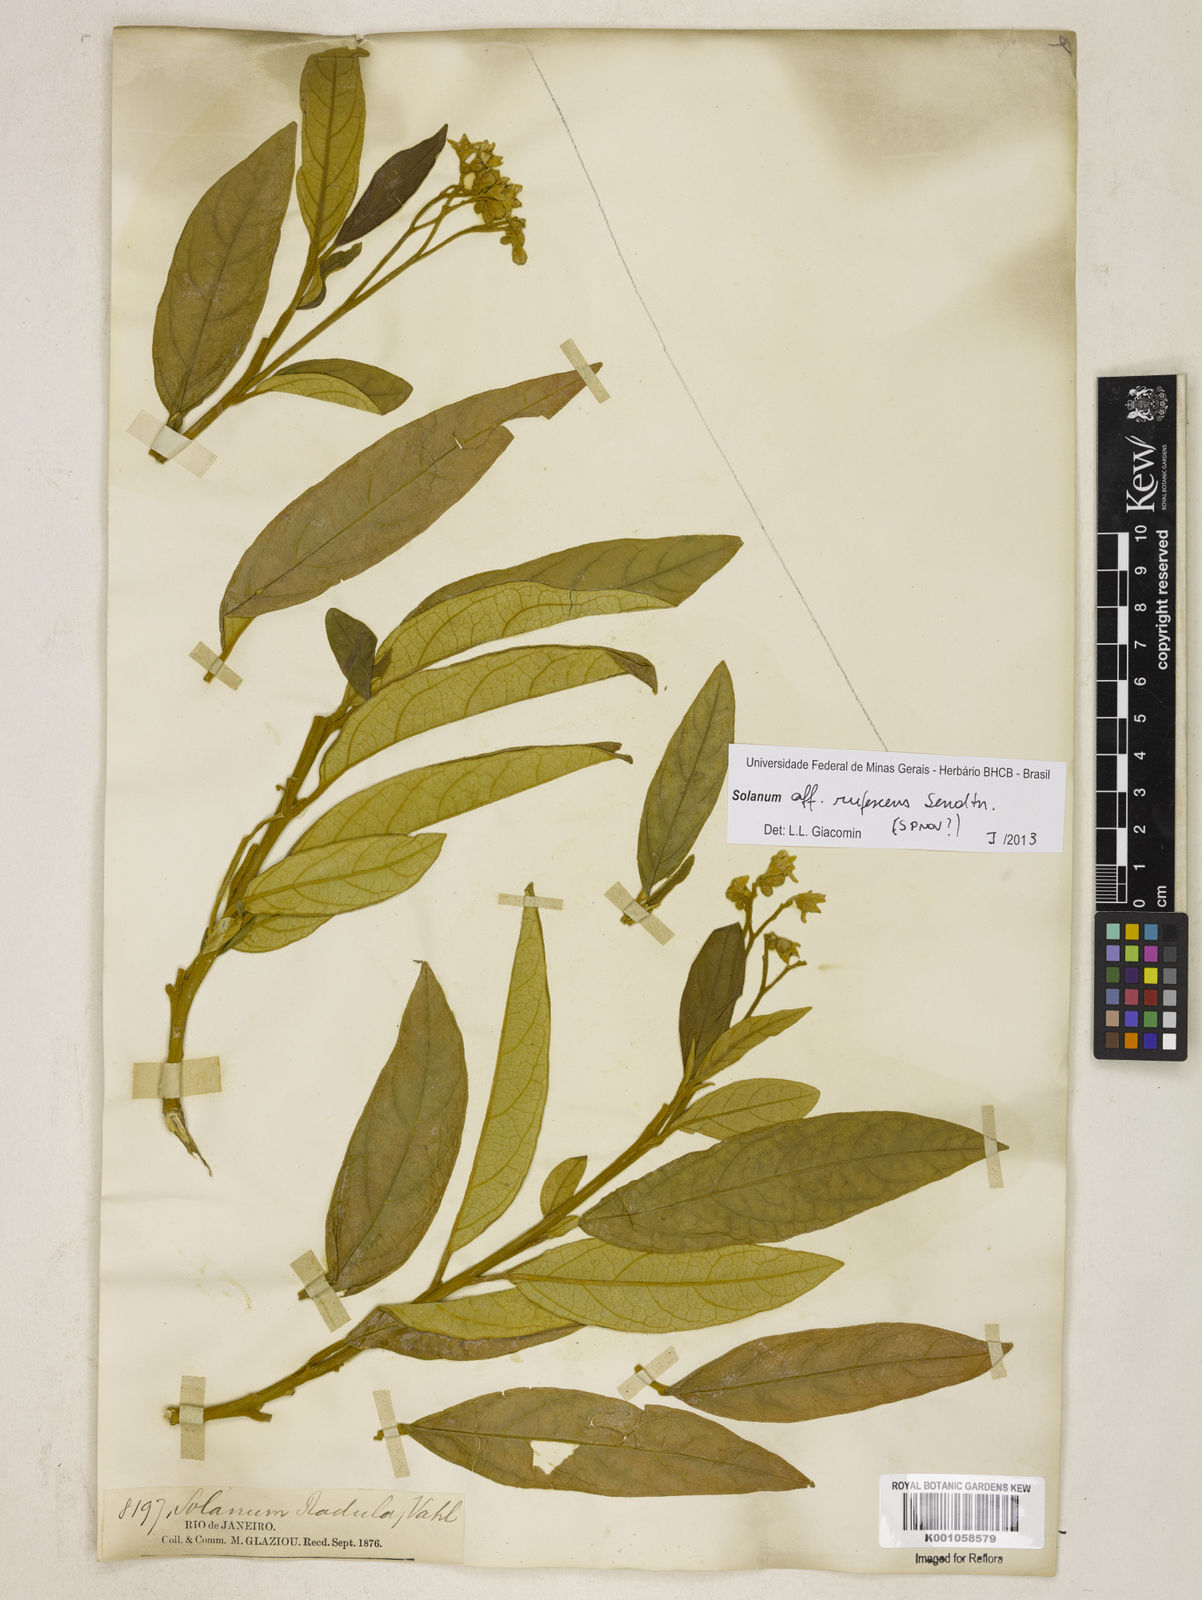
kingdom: Plantae
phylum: Tracheophyta
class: Magnoliopsida
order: Solanales
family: Solanaceae
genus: Solanum
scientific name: Solanum
